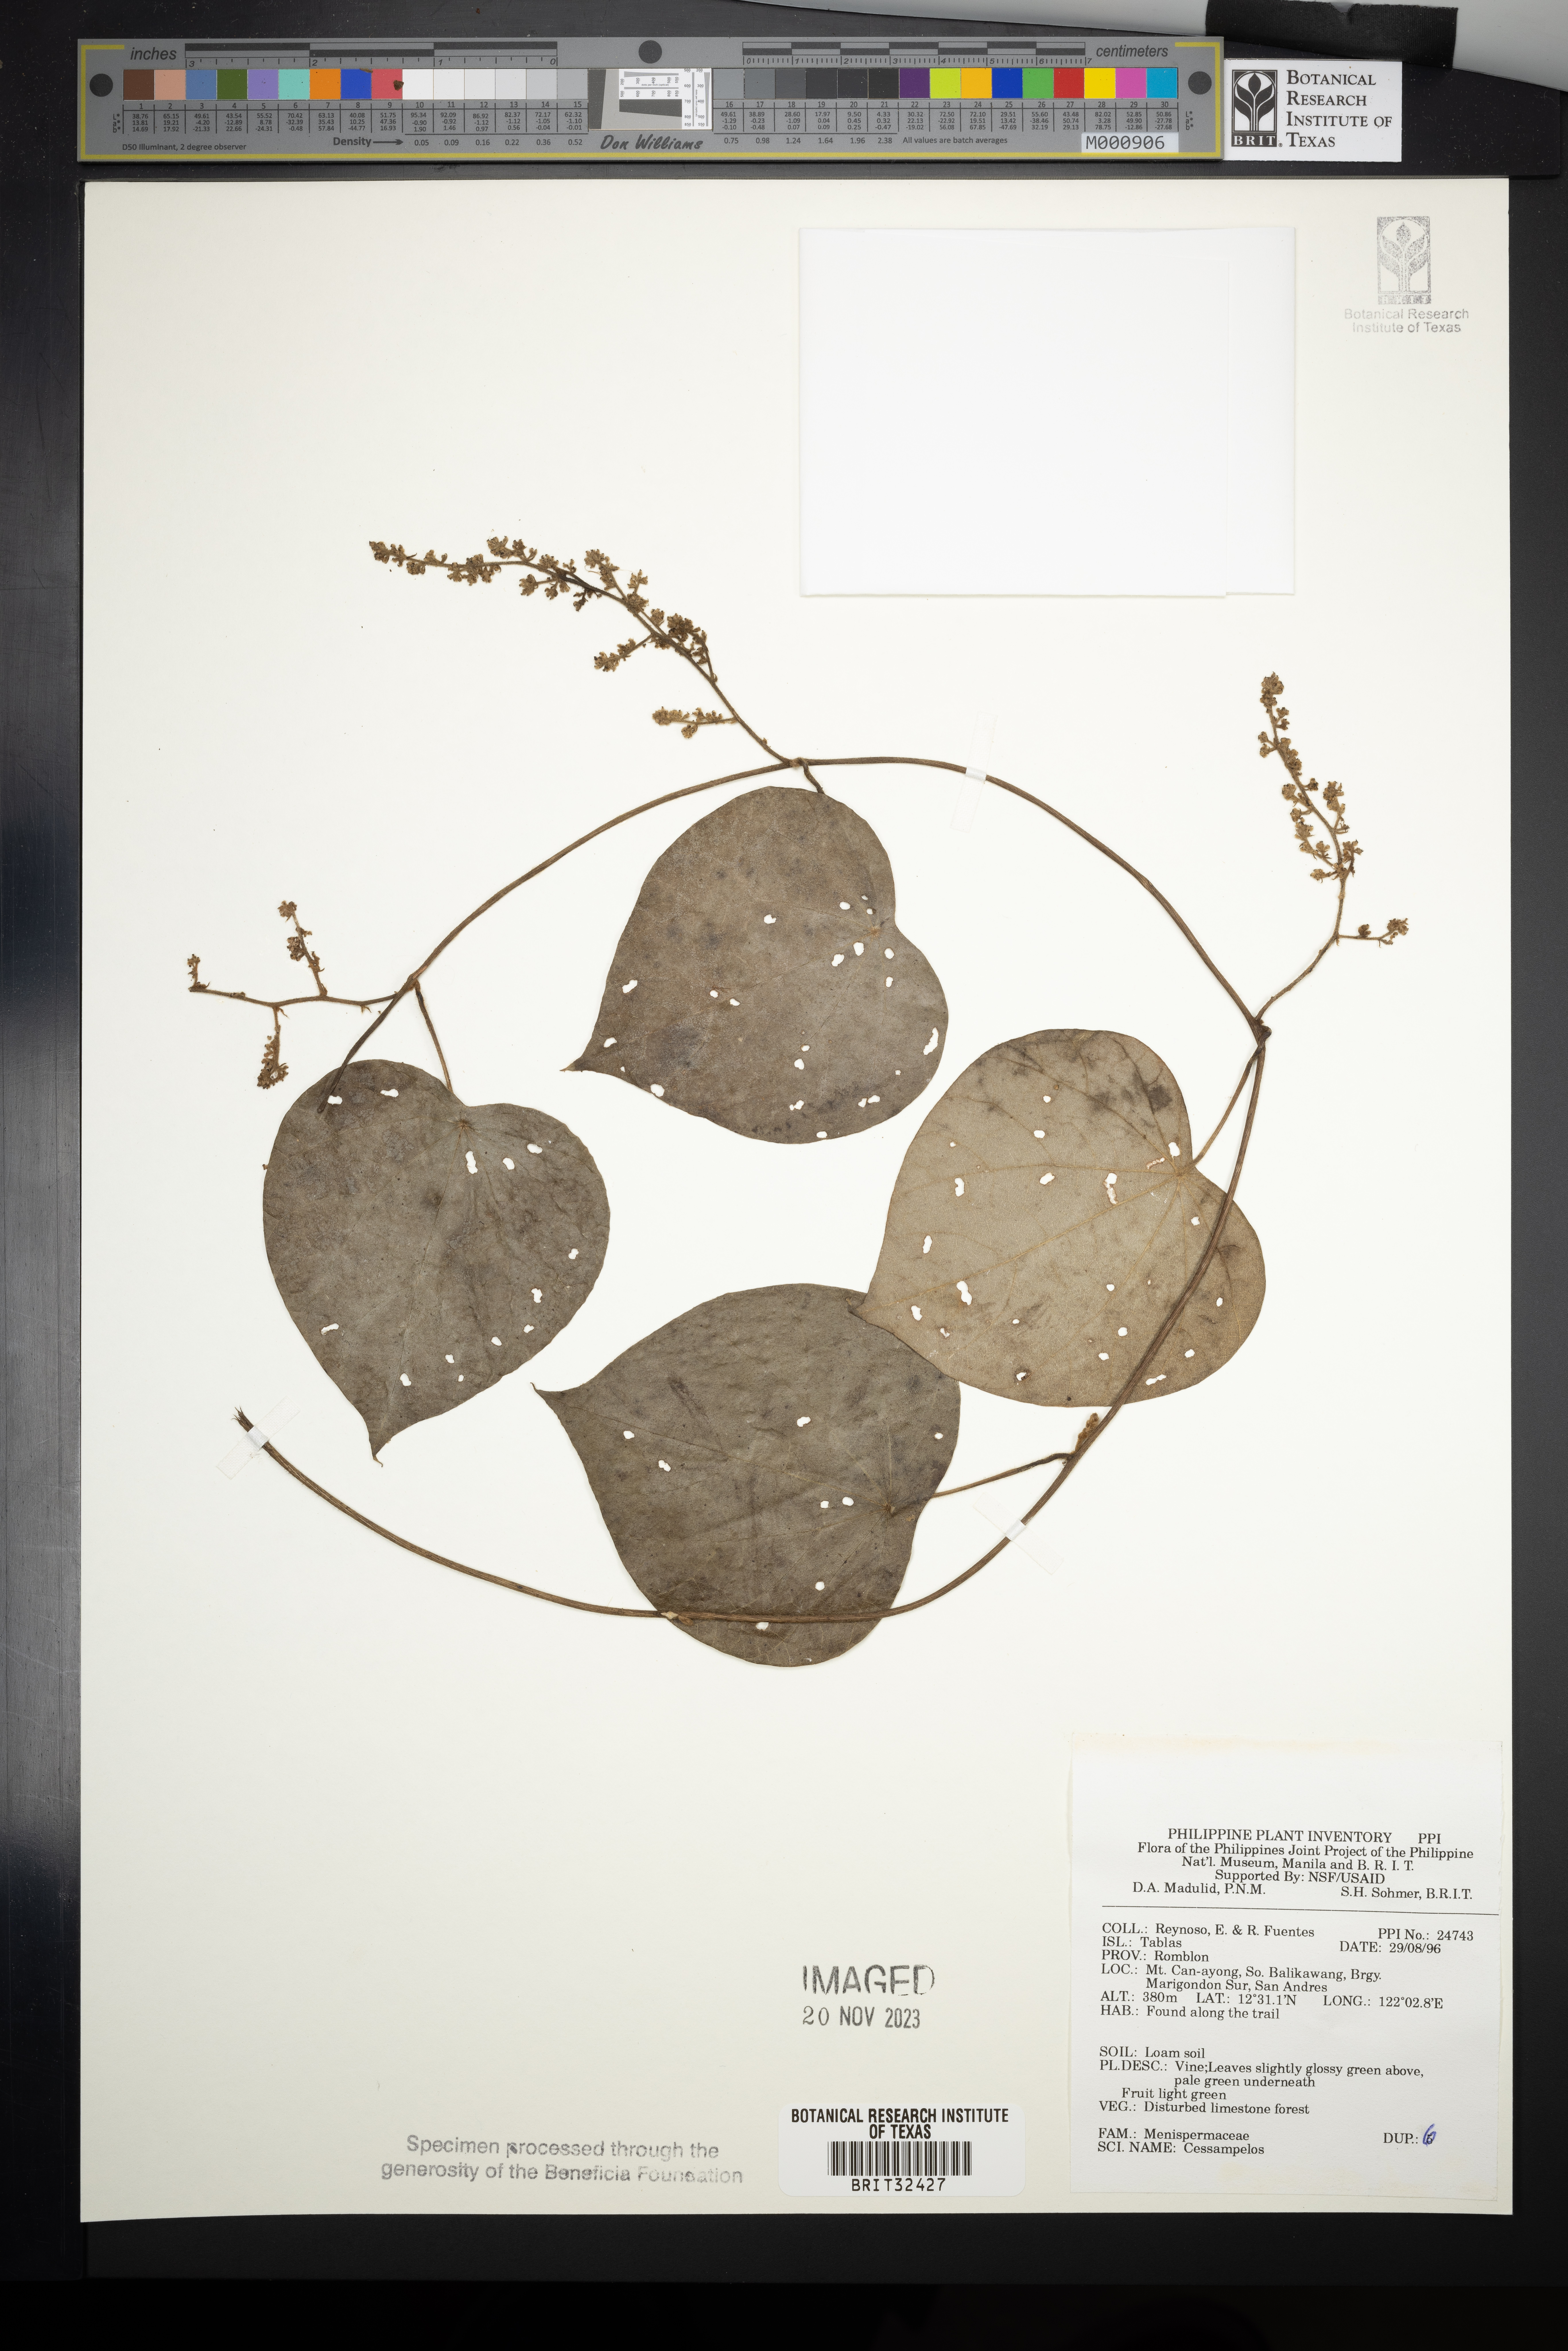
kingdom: Plantae
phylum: Tracheophyta
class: Magnoliopsida
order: Ranunculales
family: Menispermaceae
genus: Cissampelos
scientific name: Cissampelos
